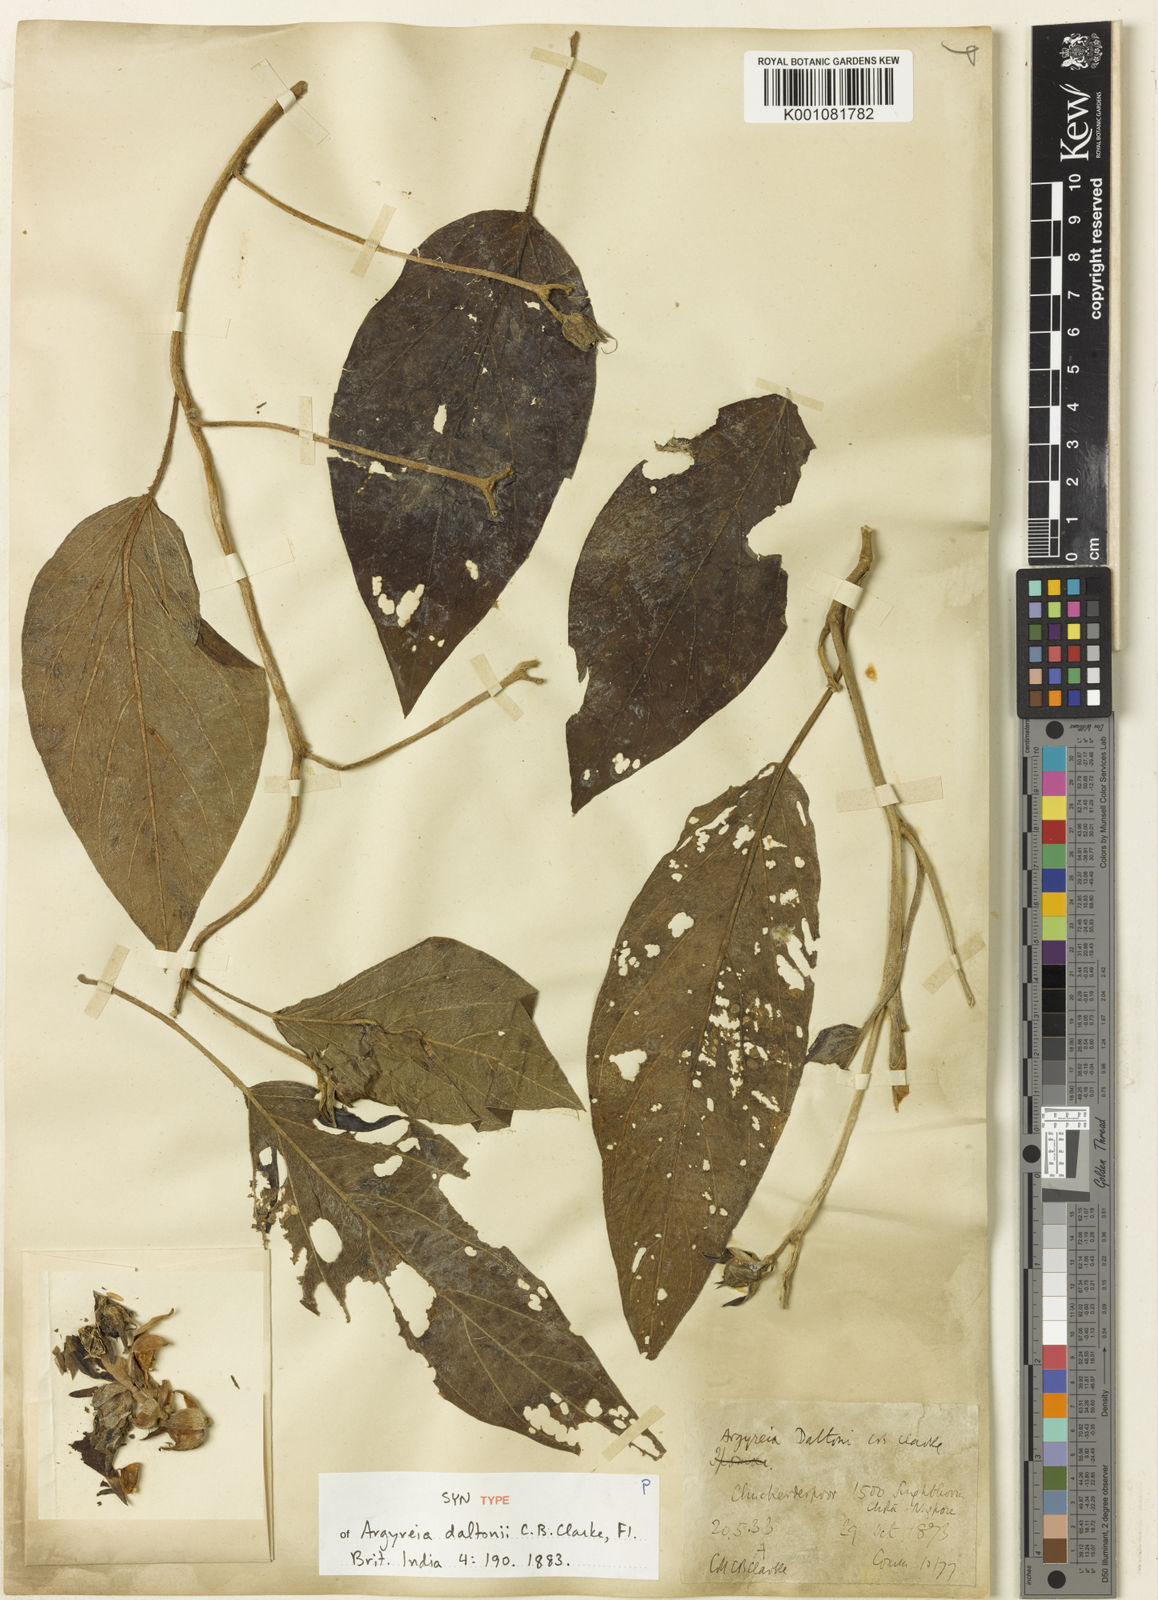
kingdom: Plantae
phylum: Tracheophyta
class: Magnoliopsida
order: Solanales
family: Convolvulaceae
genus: Argyreia
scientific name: Argyreia daltonii
